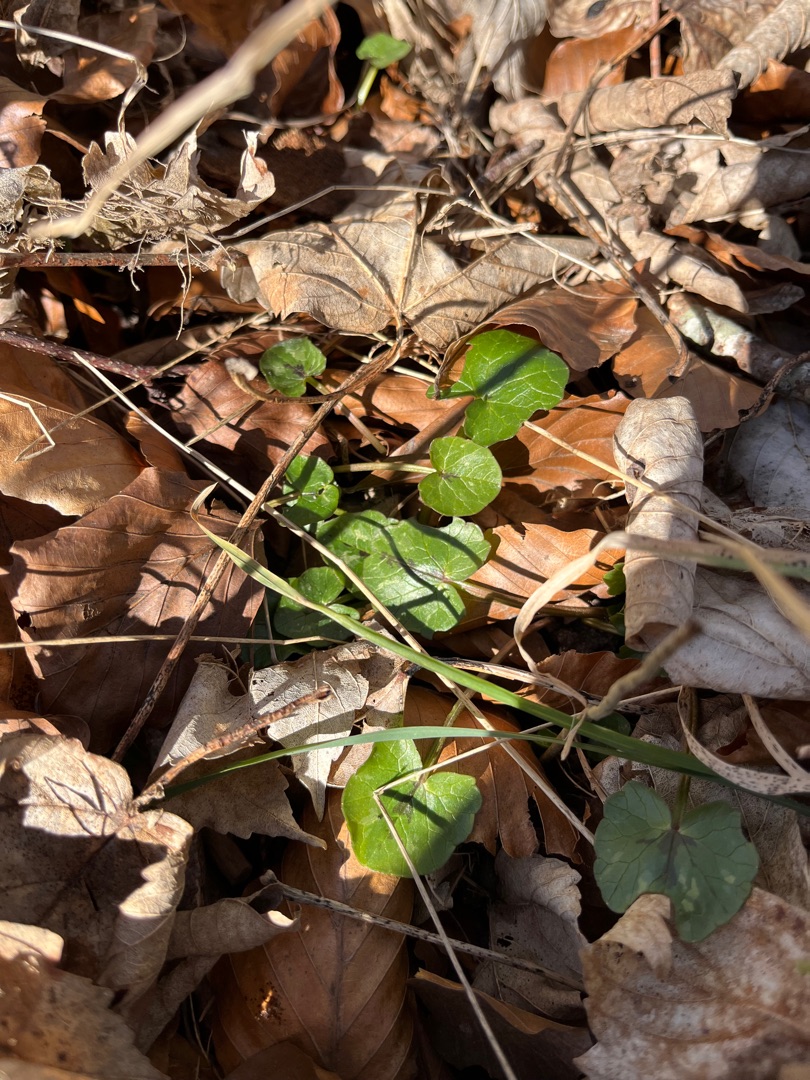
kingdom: Plantae
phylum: Tracheophyta
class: Magnoliopsida
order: Ranunculales
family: Ranunculaceae
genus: Ficaria
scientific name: Ficaria verna
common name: Vorterod
